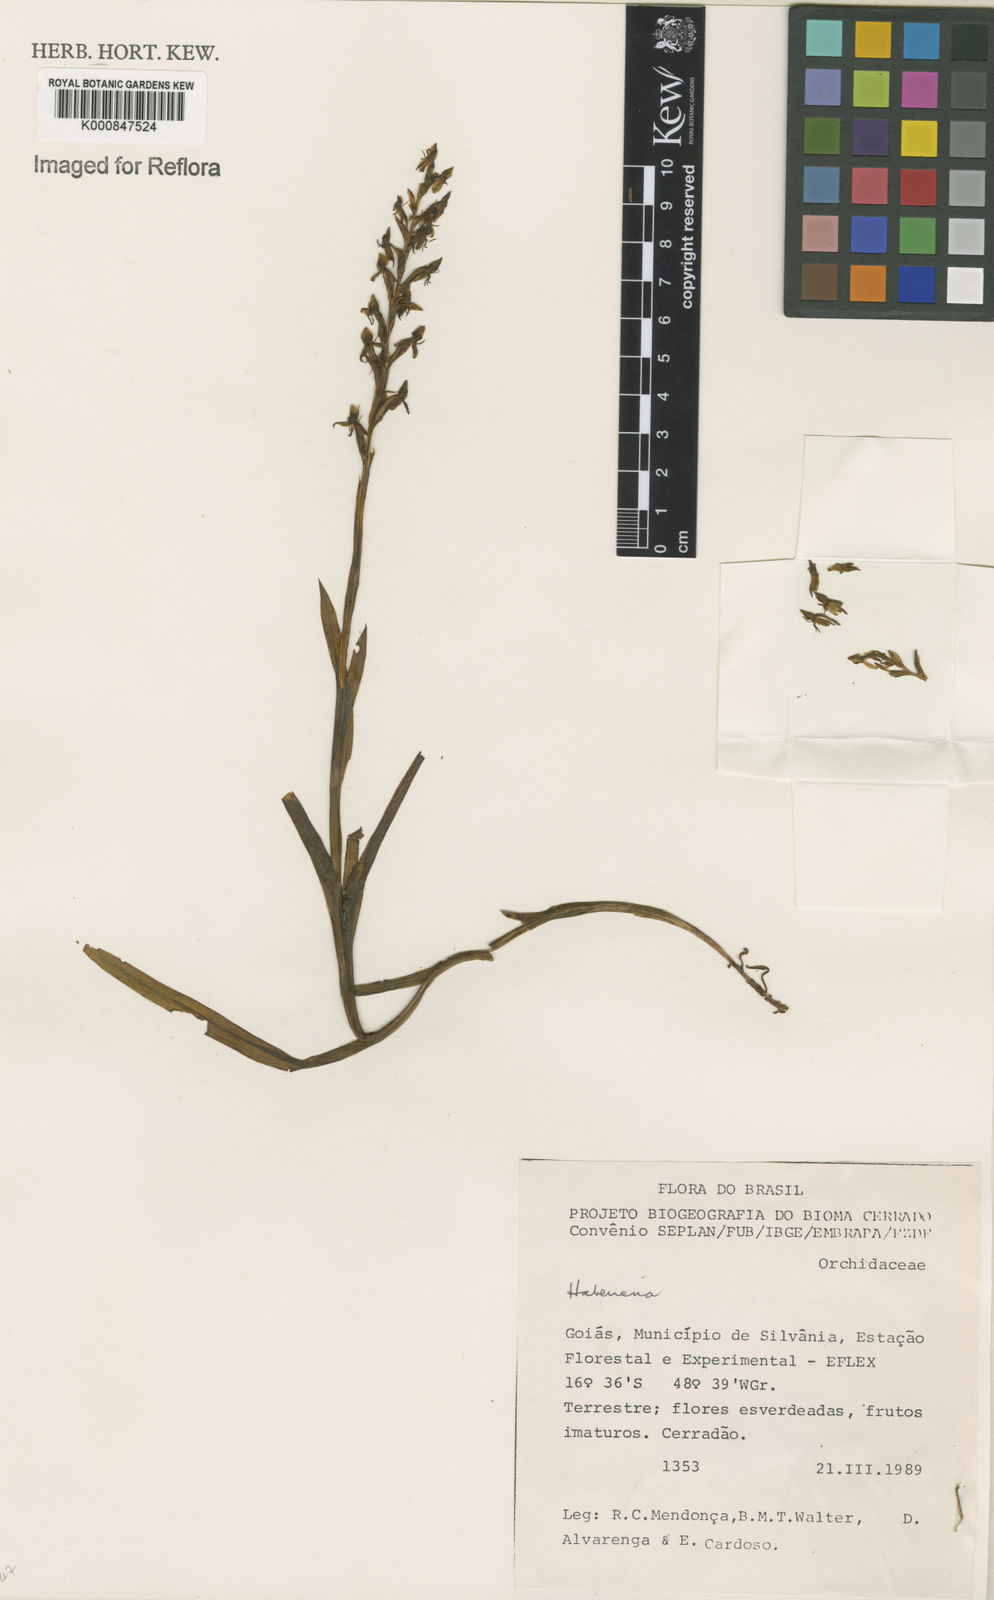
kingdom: Plantae
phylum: Tracheophyta
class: Liliopsida
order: Asparagales
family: Orchidaceae
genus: Habenaria
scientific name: Habenaria
